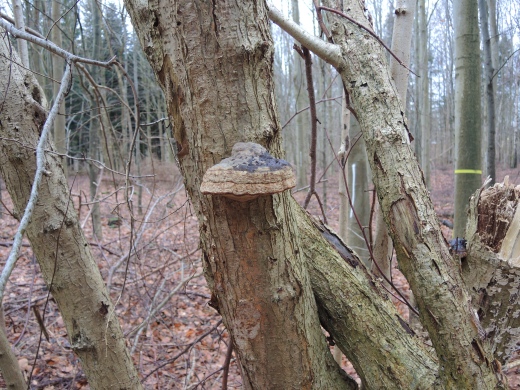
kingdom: Fungi
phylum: Basidiomycota
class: Agaricomycetes
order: Polyporales
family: Polyporaceae
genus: Fomes
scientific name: Fomes fomentarius
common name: tøndersvamp
